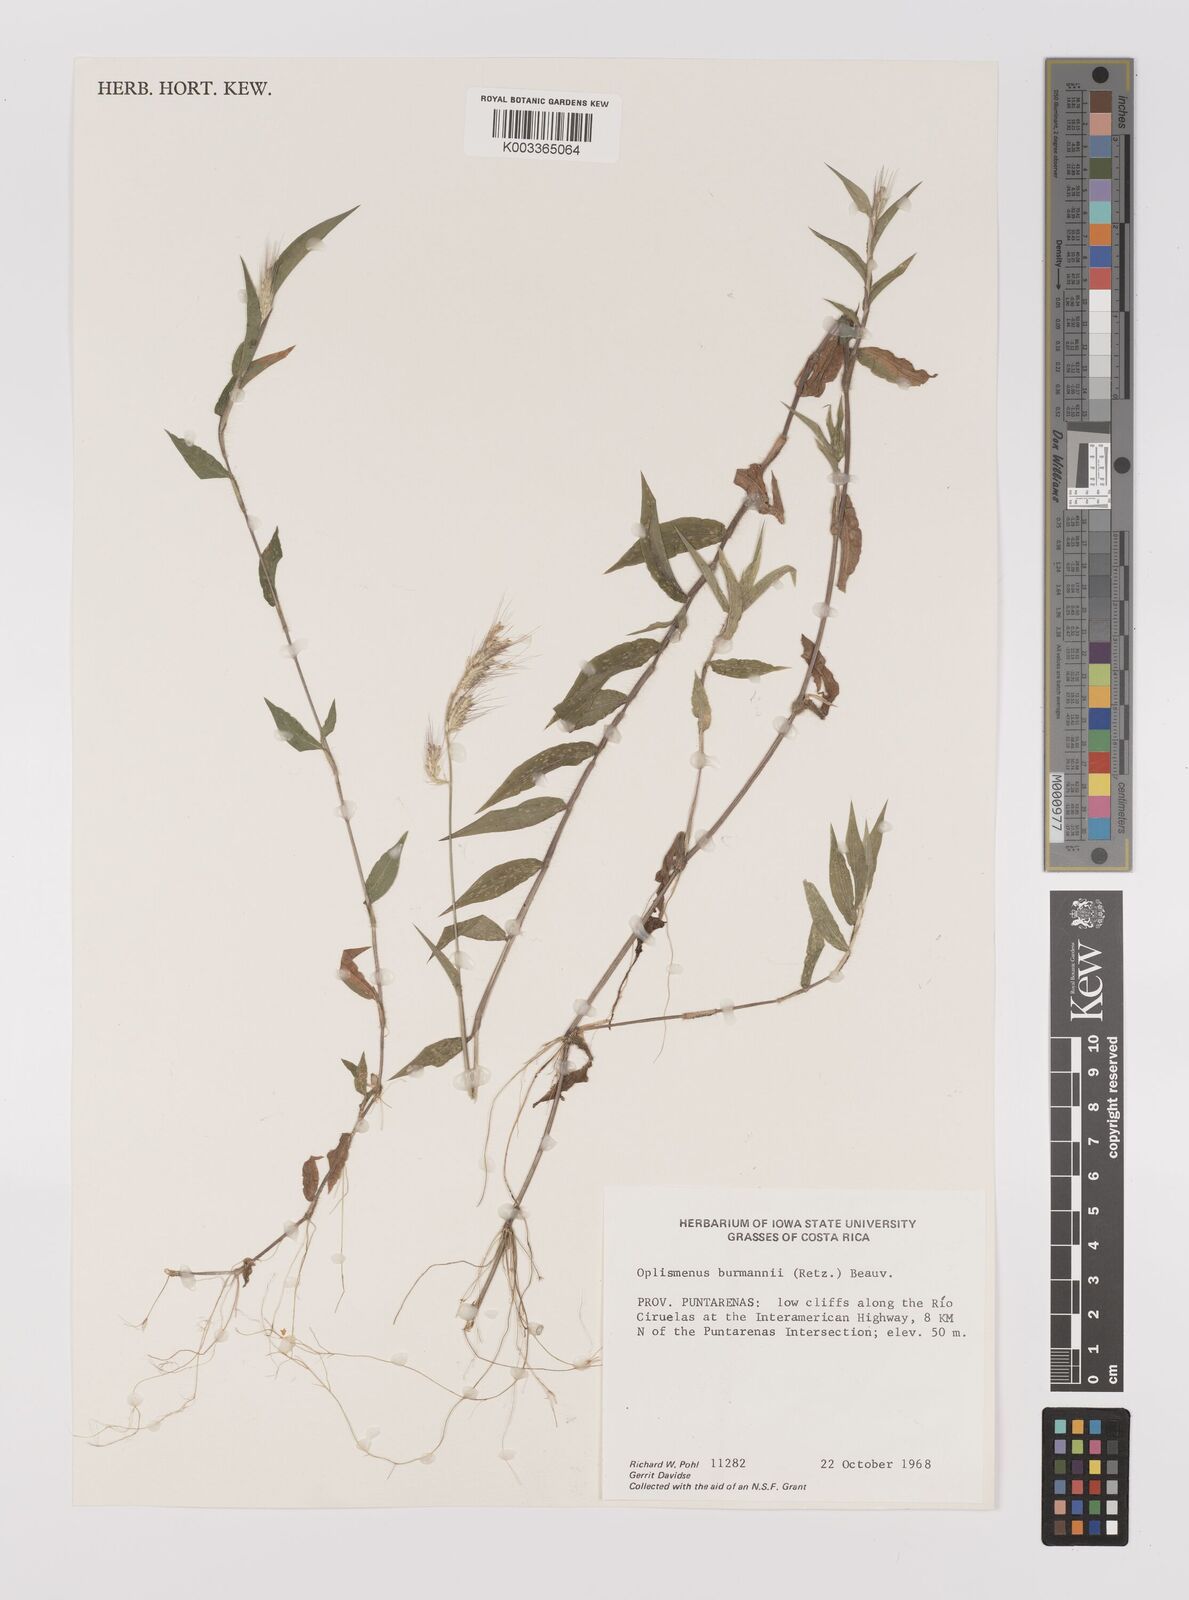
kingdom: Plantae
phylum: Tracheophyta
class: Liliopsida
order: Poales
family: Poaceae
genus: Oplismenus
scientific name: Oplismenus burmanni
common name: Burmann's basketgrass
